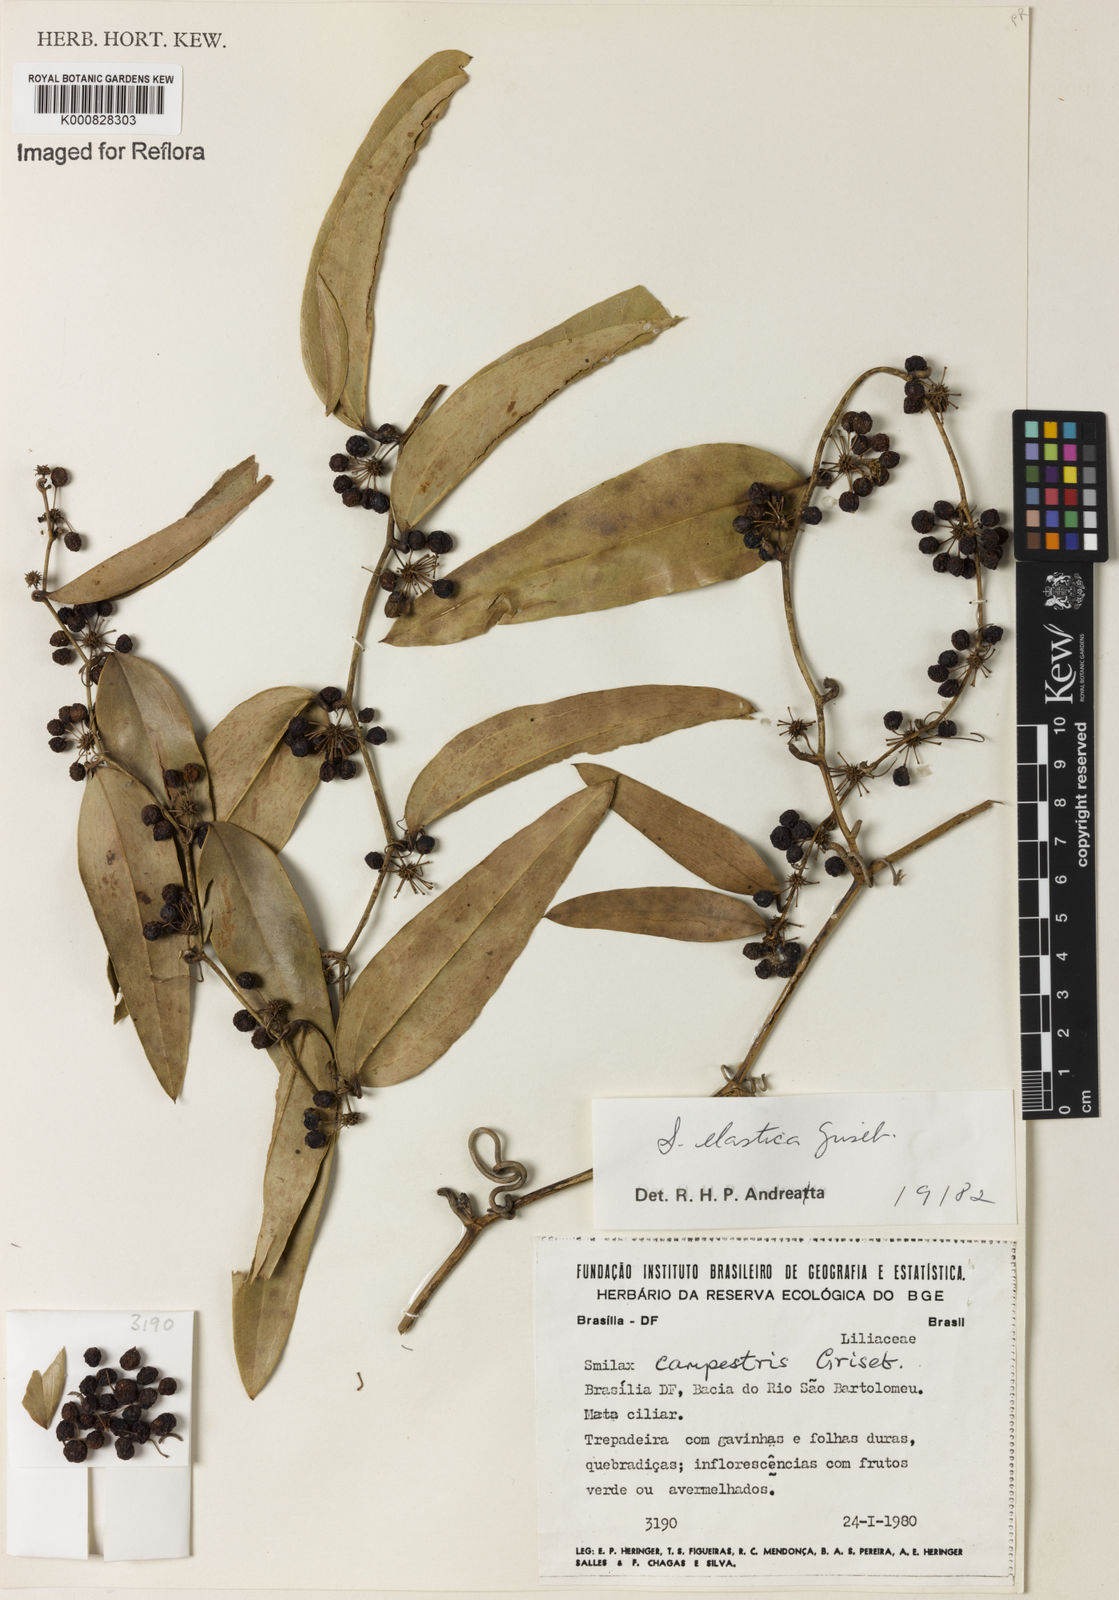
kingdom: Plantae
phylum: Tracheophyta
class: Liliopsida
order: Liliales
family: Smilacaceae
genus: Smilax
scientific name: Smilax elastica
